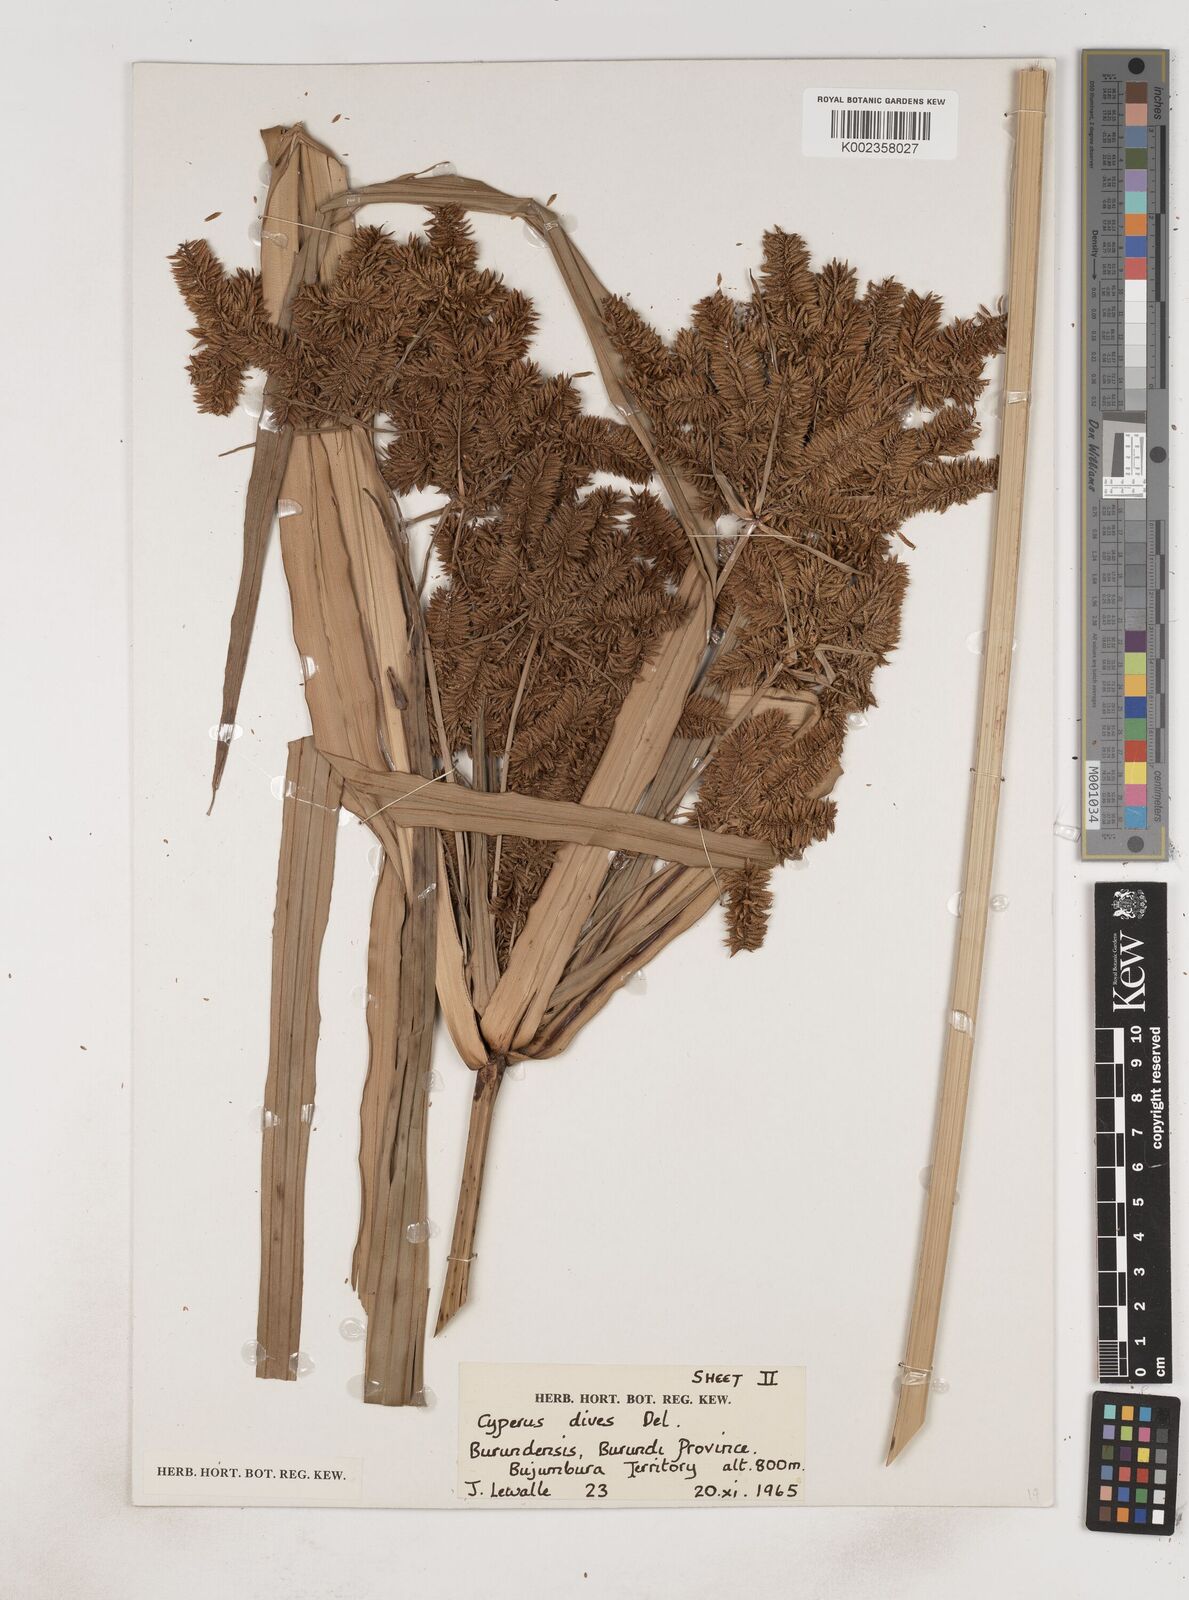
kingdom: Plantae
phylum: Tracheophyta
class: Liliopsida
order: Poales
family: Cyperaceae
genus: Cyperus
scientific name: Cyperus dives
